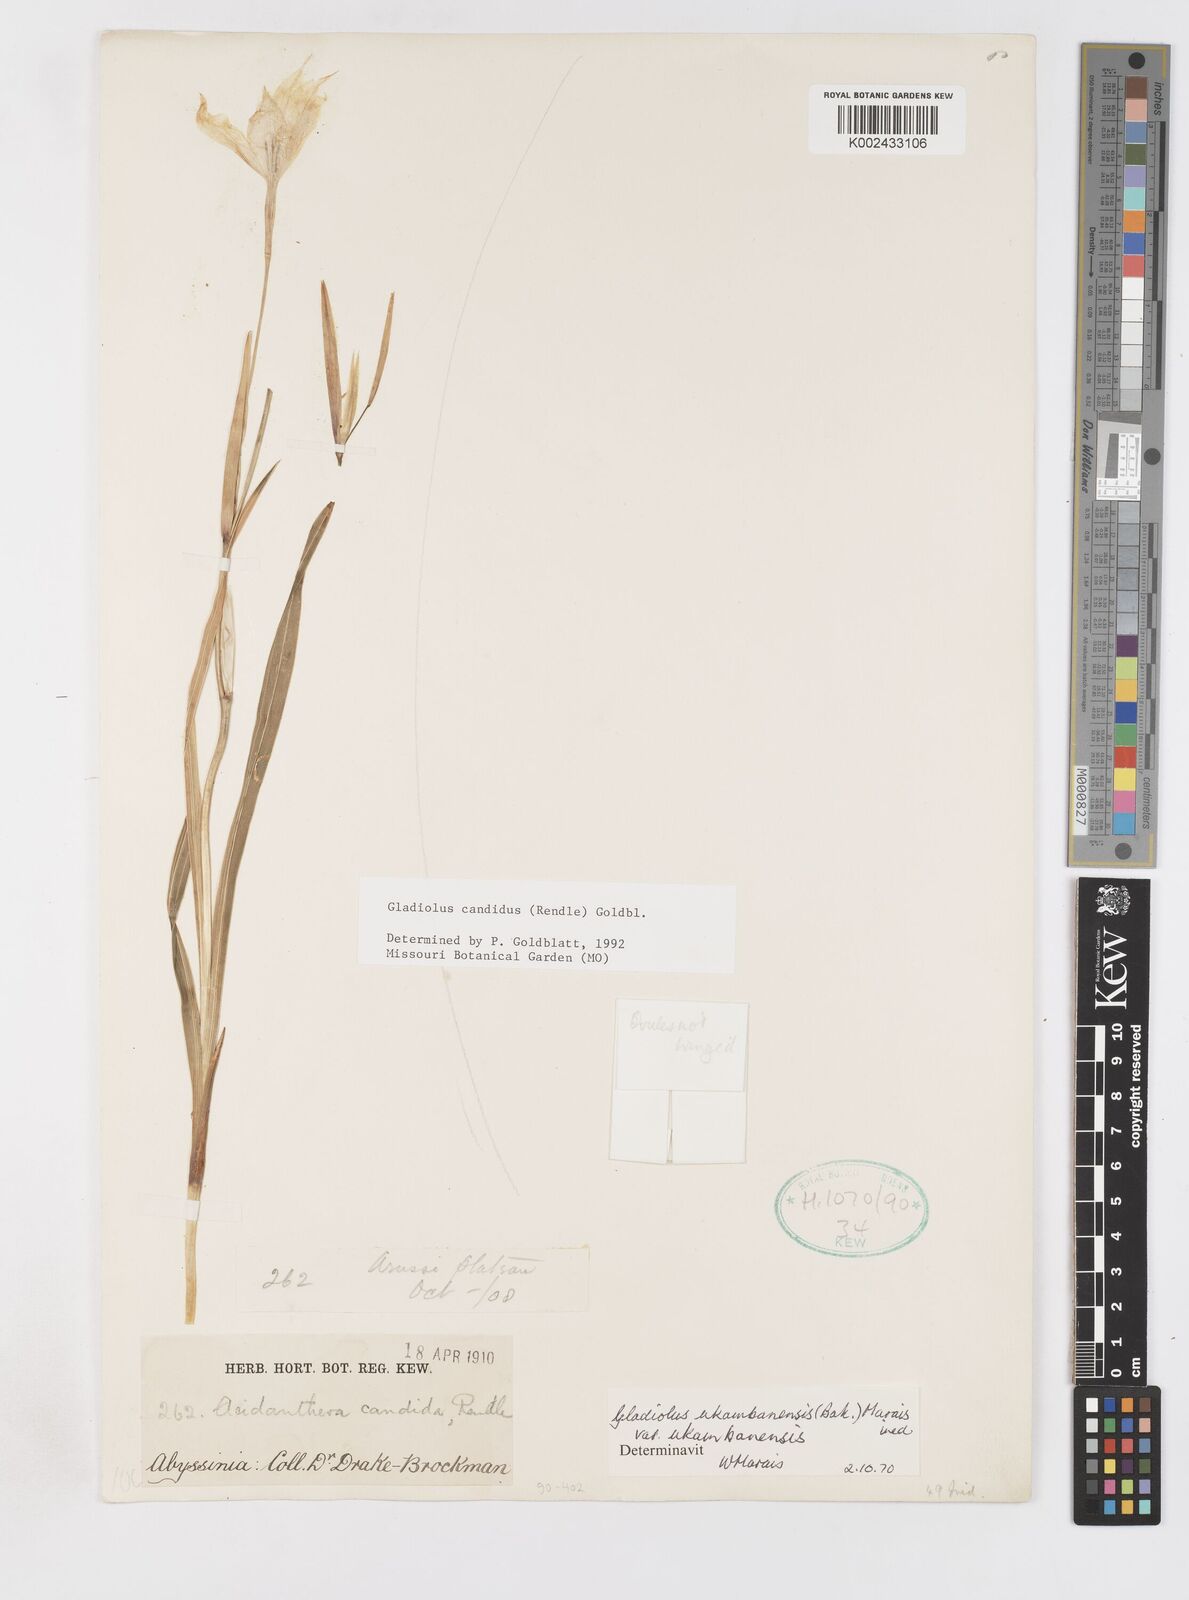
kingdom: Plantae
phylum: Tracheophyta
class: Liliopsida
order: Asparagales
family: Iridaceae
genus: Gladiolus
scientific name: Gladiolus candidus
